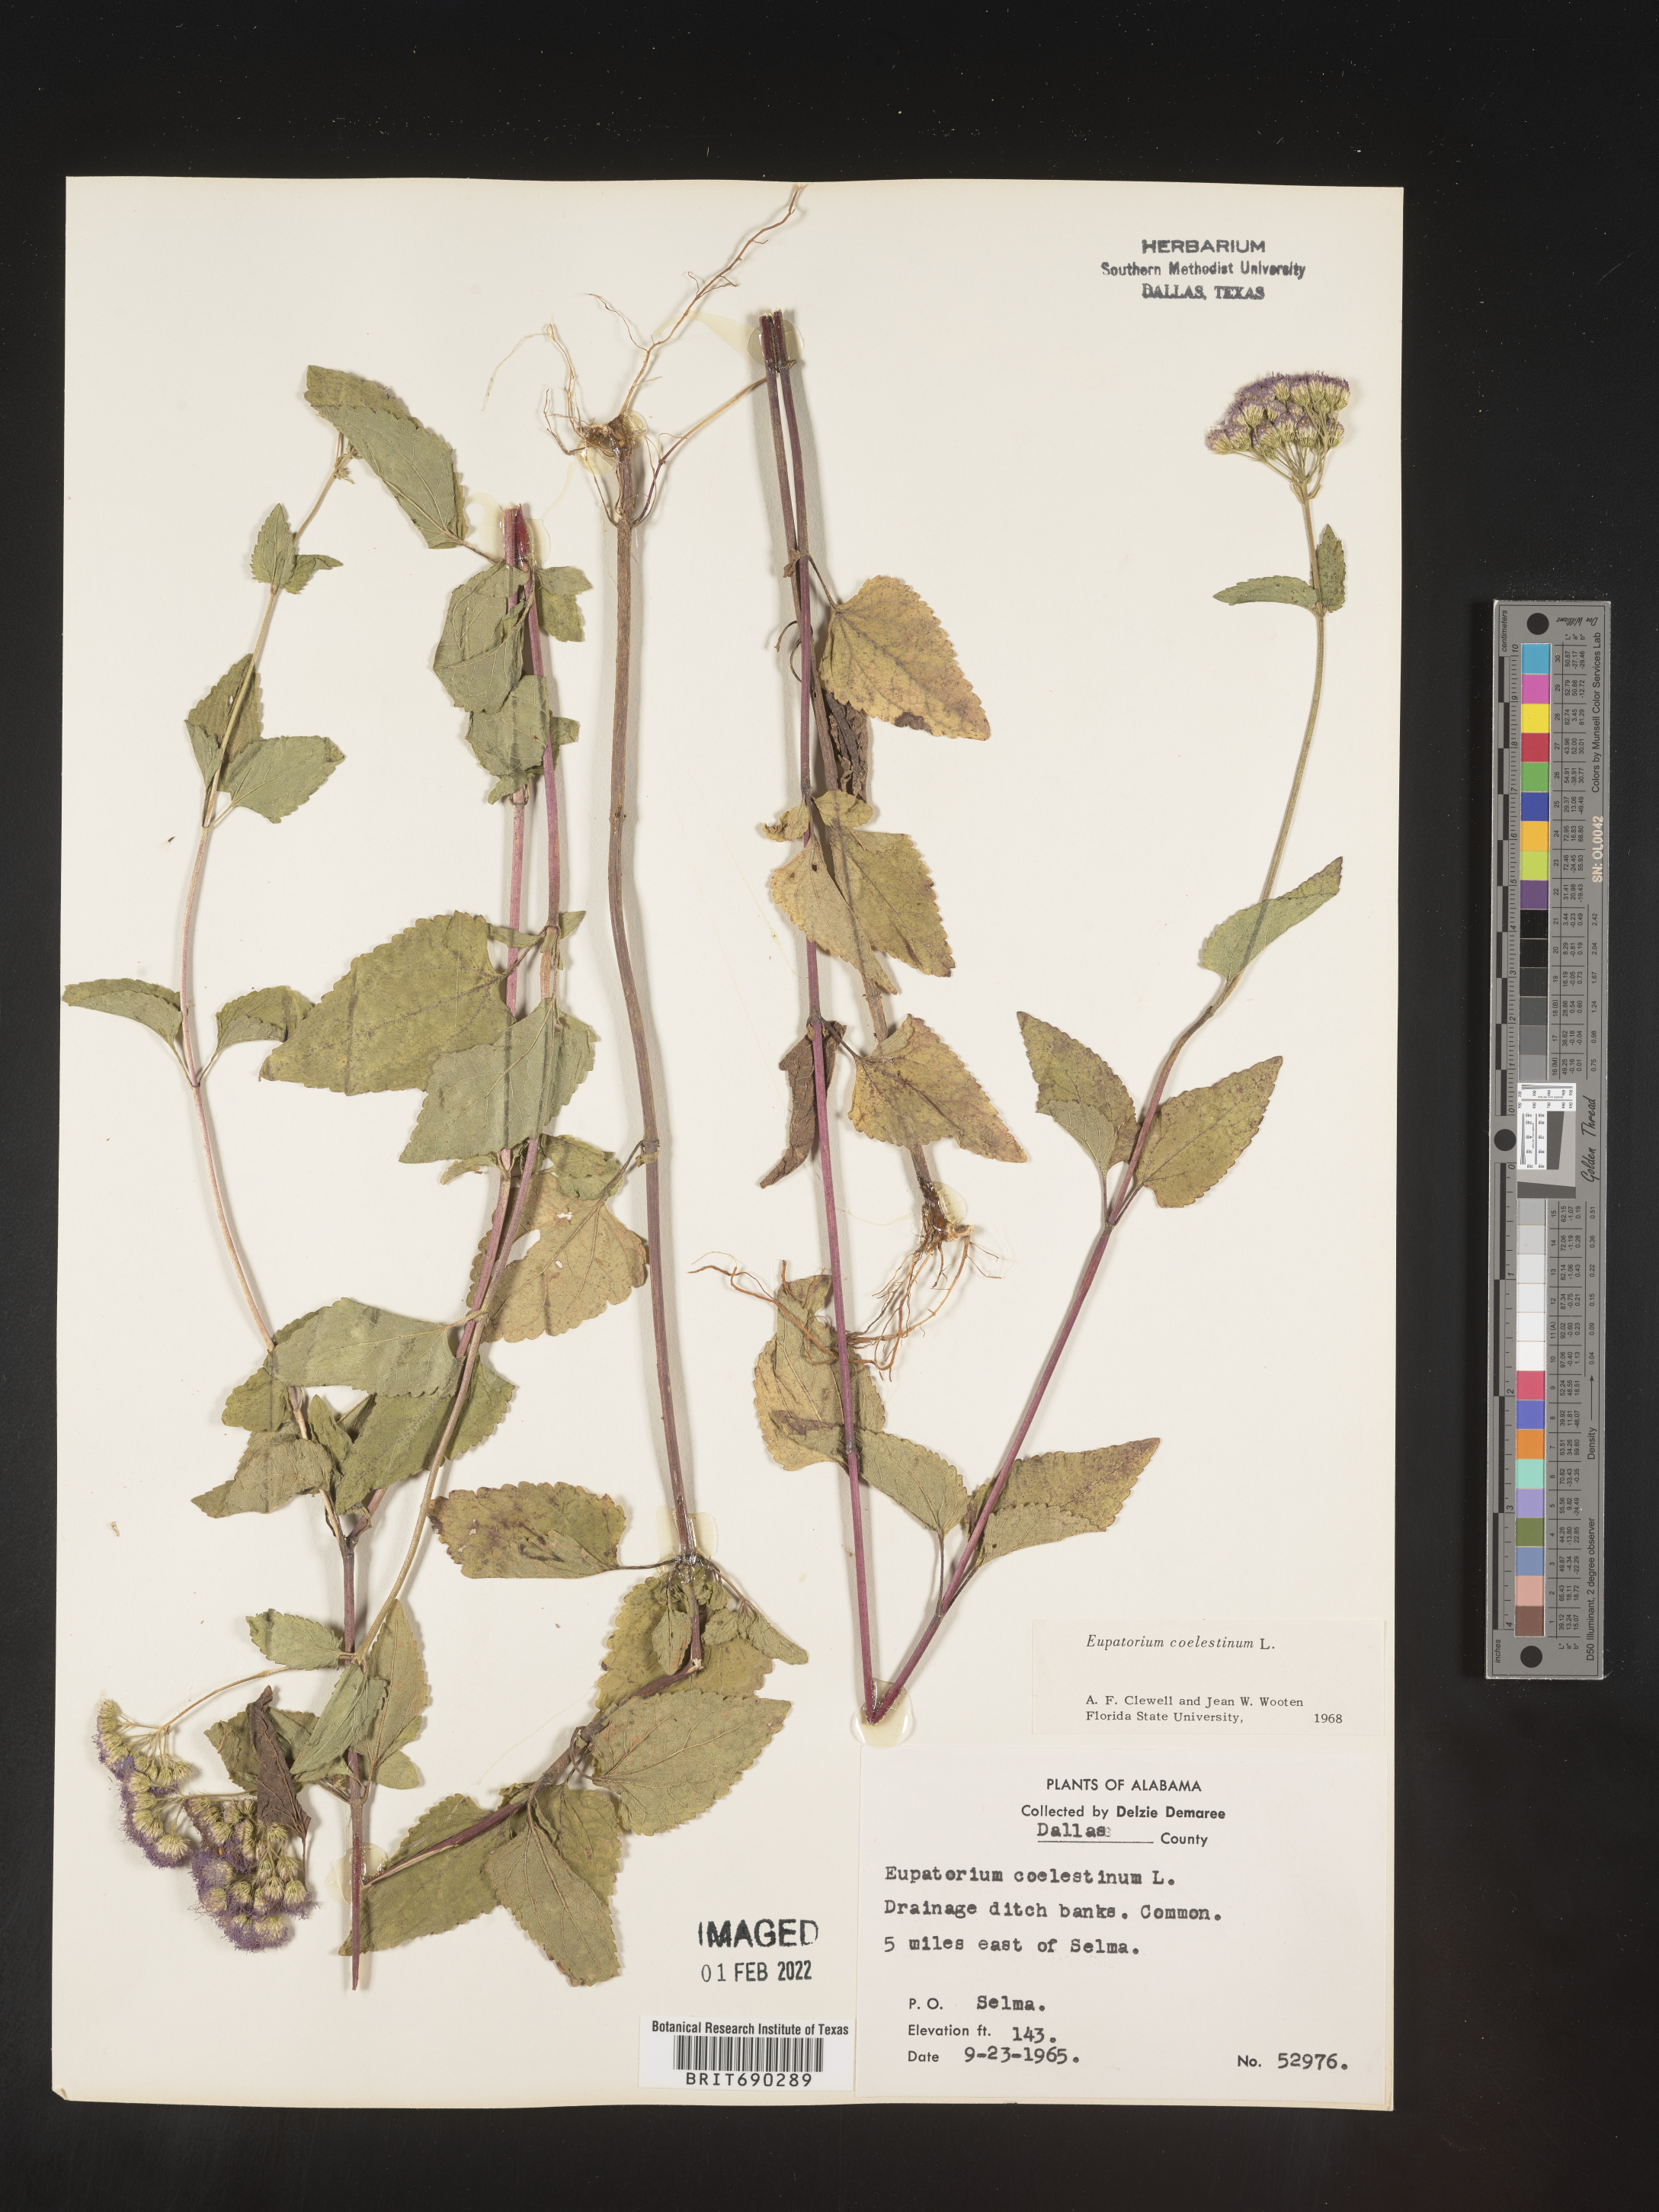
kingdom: Plantae
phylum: Tracheophyta
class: Magnoliopsida
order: Asterales
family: Asteraceae
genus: Conoclinium
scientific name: Conoclinium coelestinum
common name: Blue mistflower
